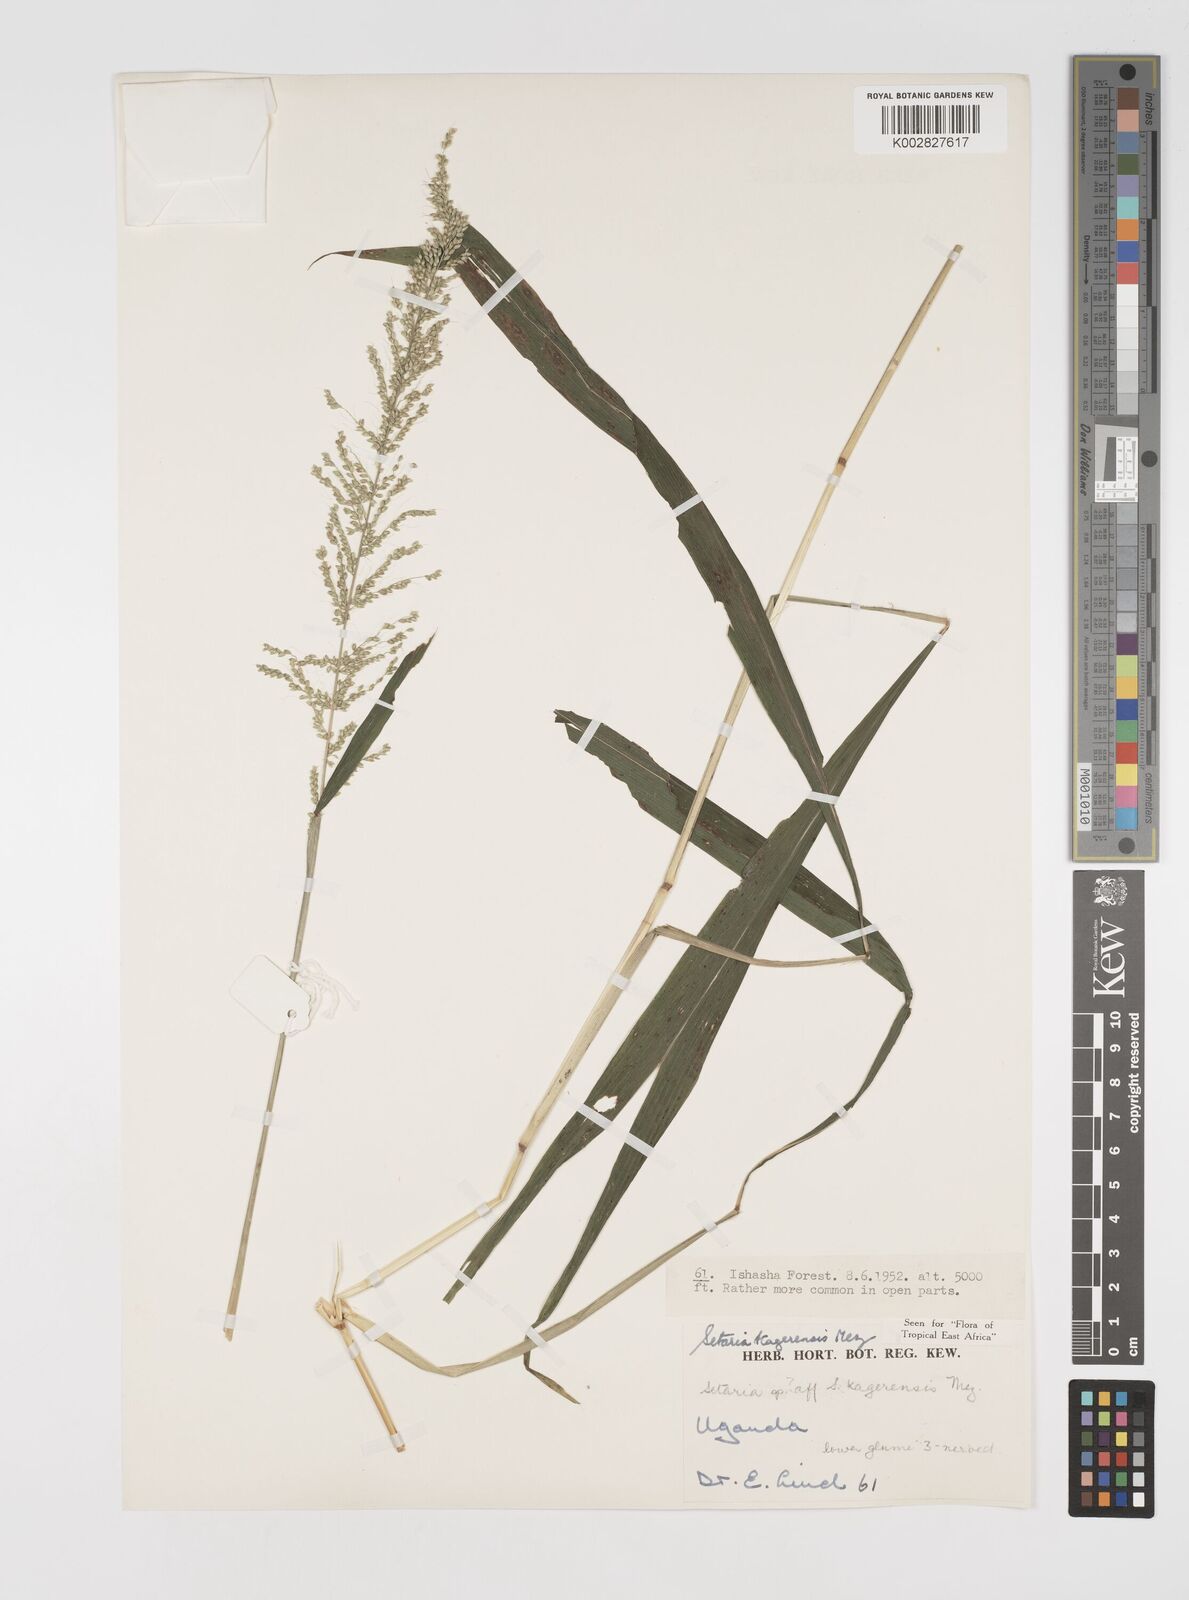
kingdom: Plantae
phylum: Tracheophyta
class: Liliopsida
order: Poales
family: Poaceae
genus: Setaria
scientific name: Setaria kagerensis
